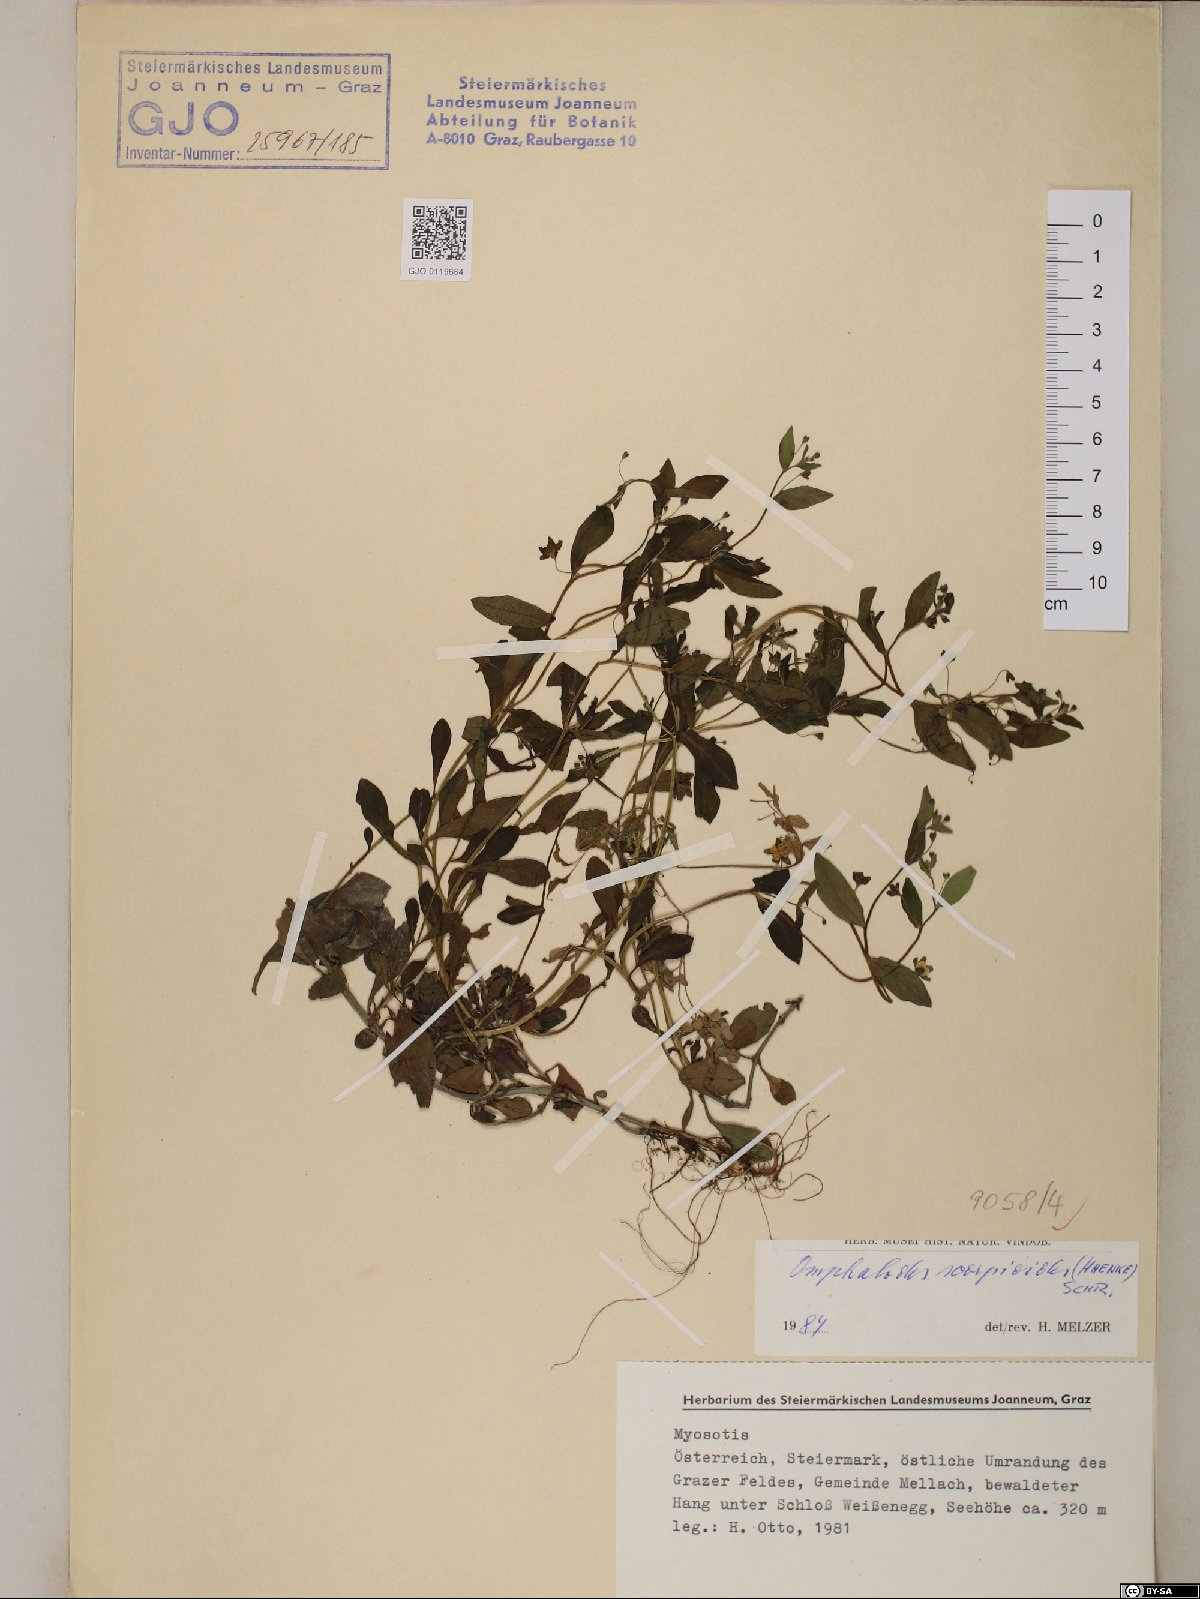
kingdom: Plantae
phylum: Tracheophyta
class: Magnoliopsida
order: Boraginales
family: Boraginaceae
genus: Memoremea
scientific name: Memoremea scorpioides
